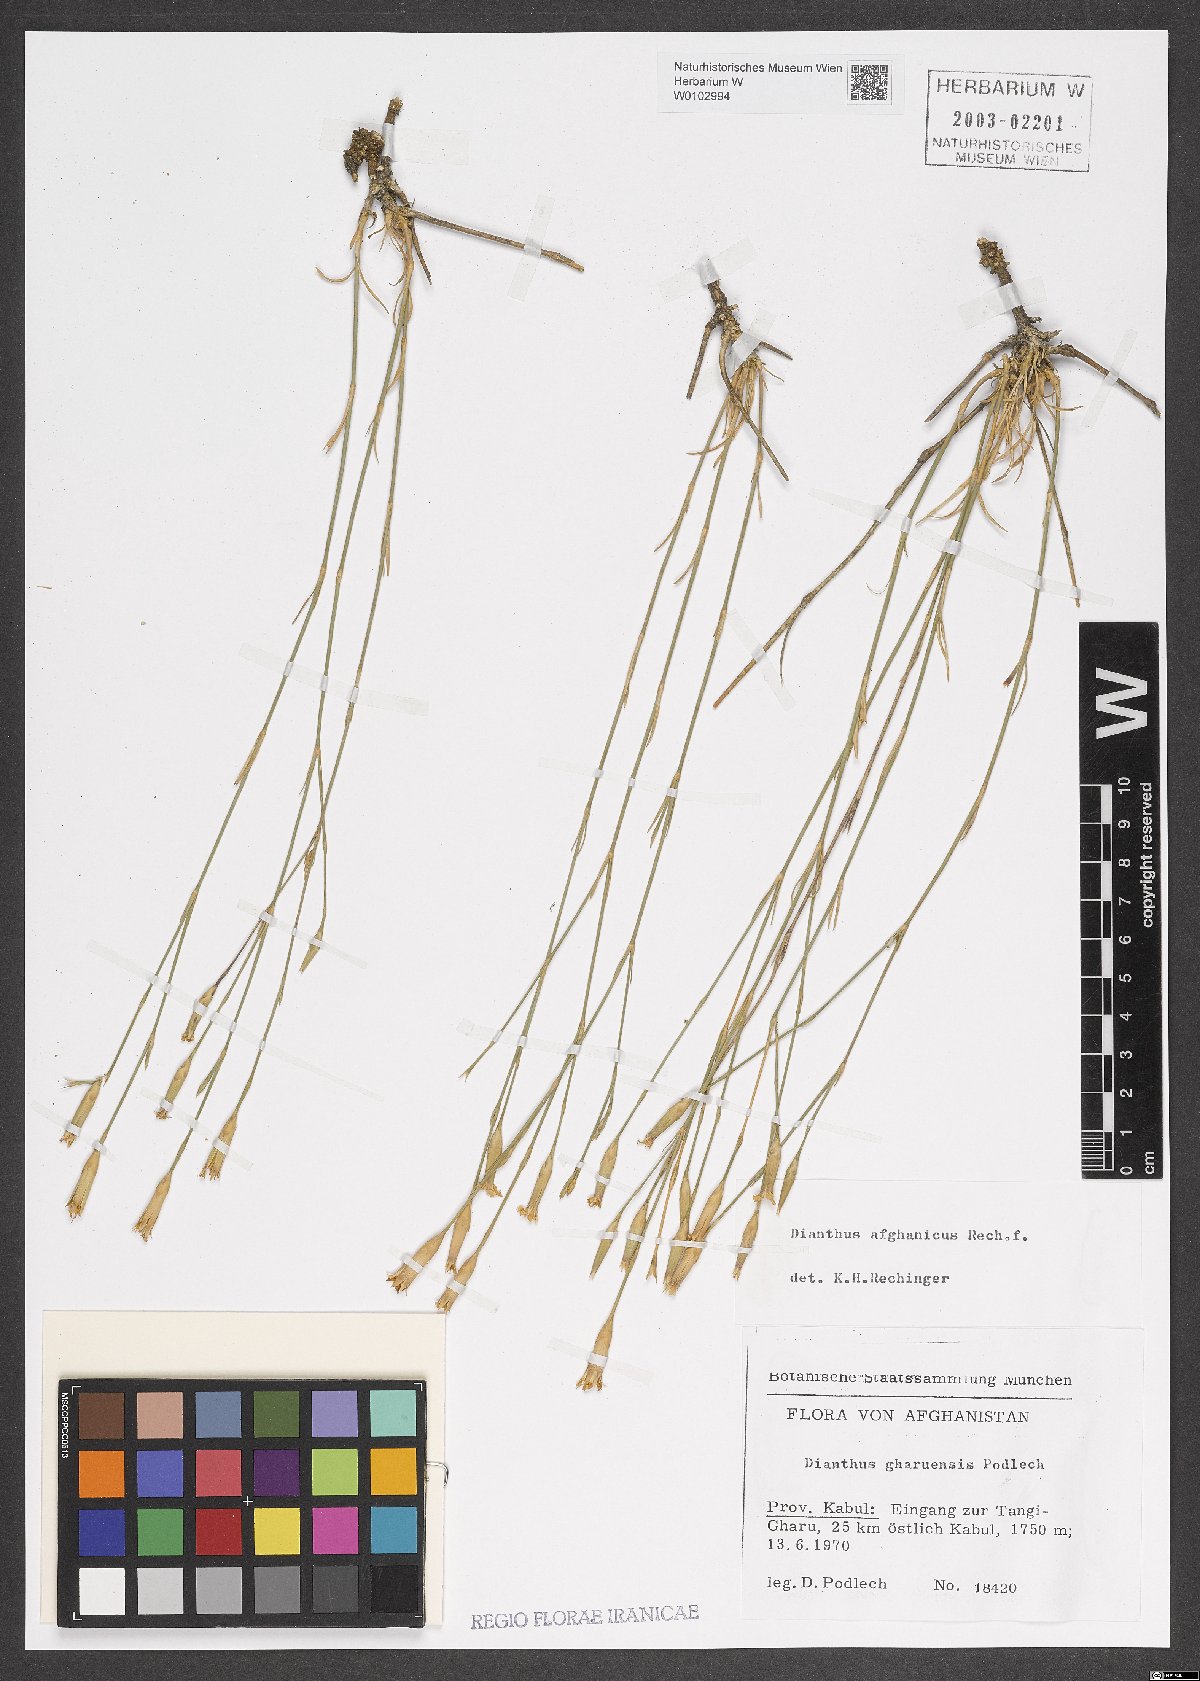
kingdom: Plantae
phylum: Tracheophyta
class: Magnoliopsida
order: Caryophyllales
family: Caryophyllaceae
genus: Dianthus
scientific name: Dianthus afghanicus
